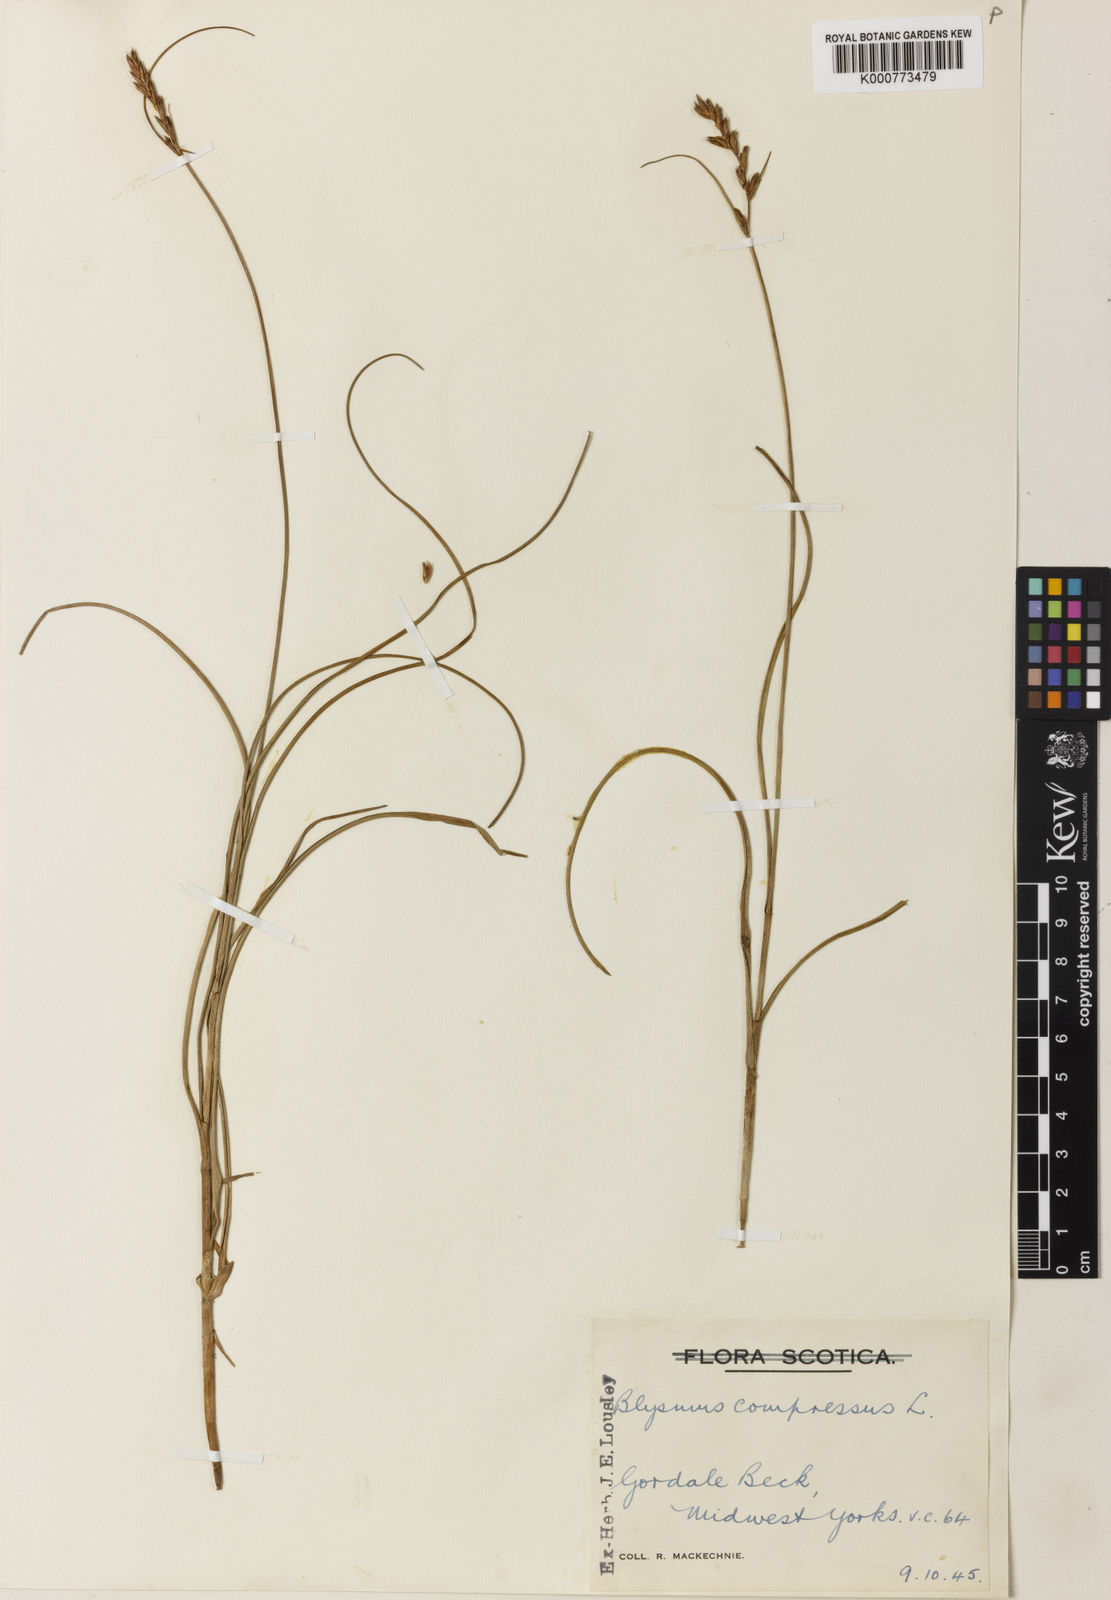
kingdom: Plantae
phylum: Tracheophyta
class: Liliopsida
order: Poales
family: Cyperaceae
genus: Blysmus
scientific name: Blysmus compressus
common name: Flat-sedge
